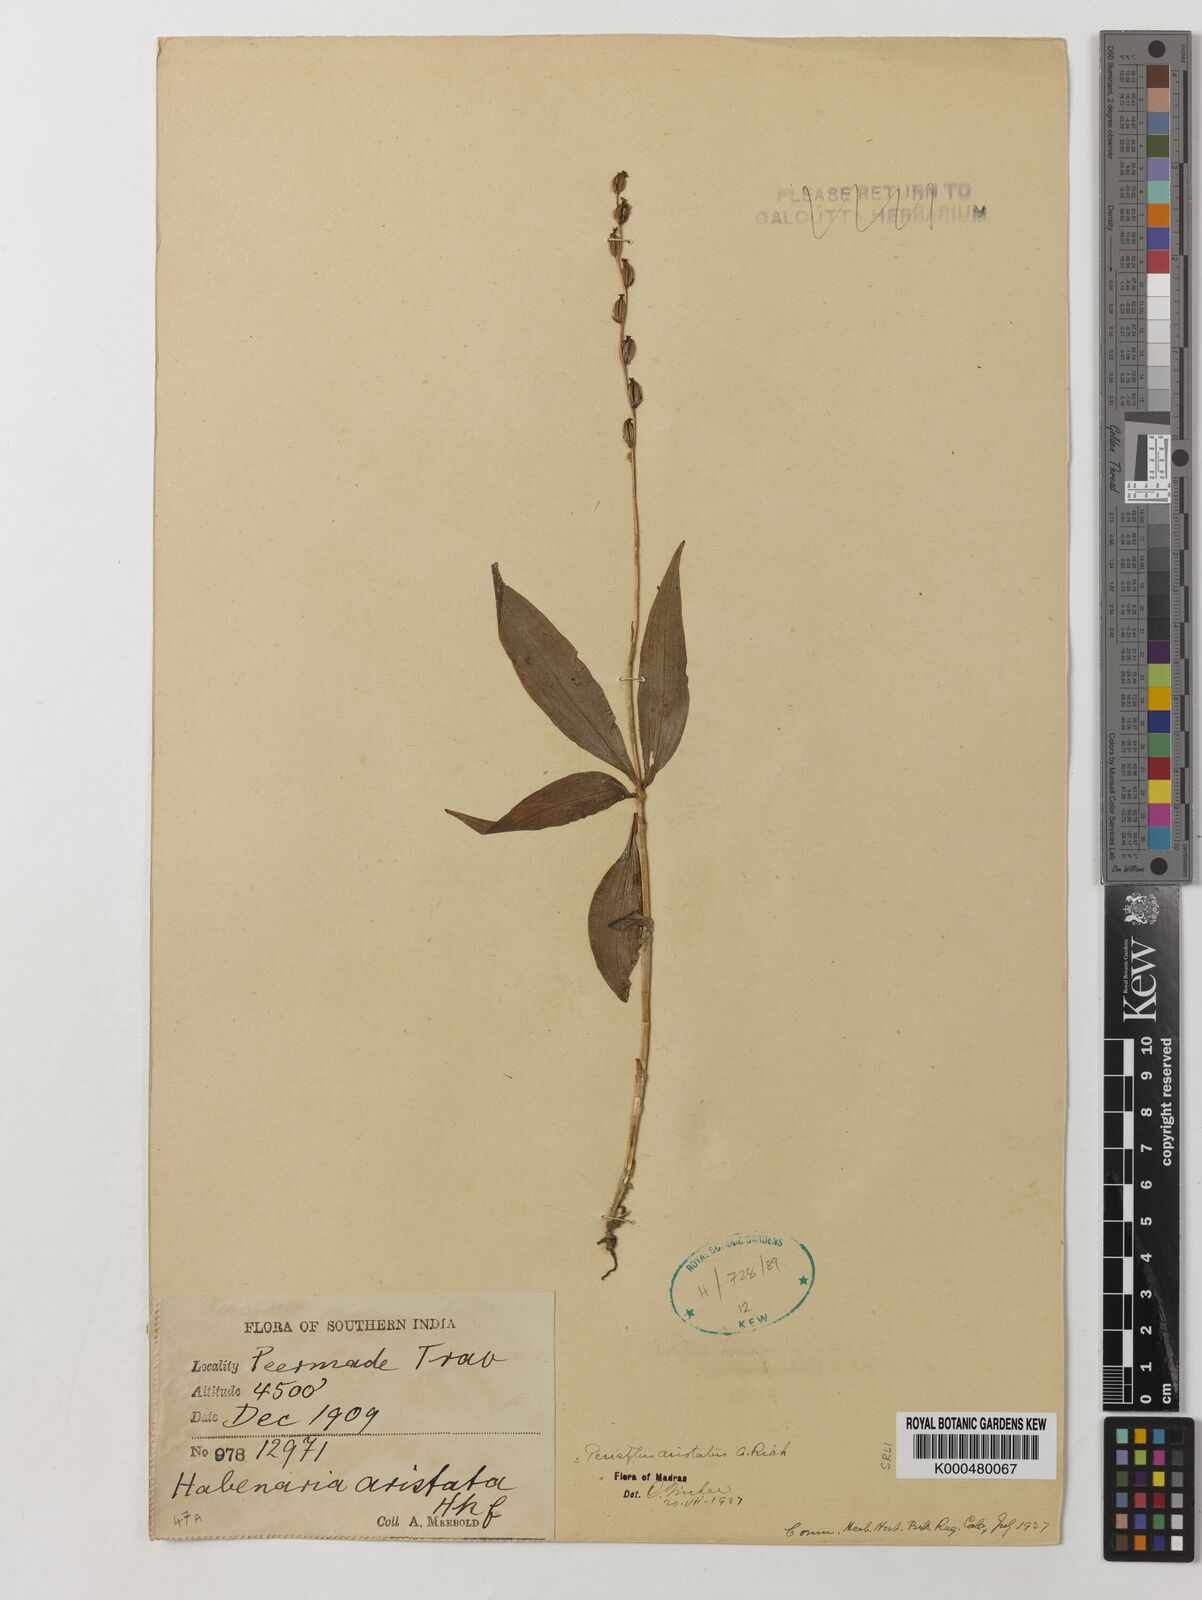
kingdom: Plantae
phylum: Tracheophyta
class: Liliopsida
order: Asparagales
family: Orchidaceae
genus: Peristylus
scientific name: Peristylus aristatus
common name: The spiked peristylus
